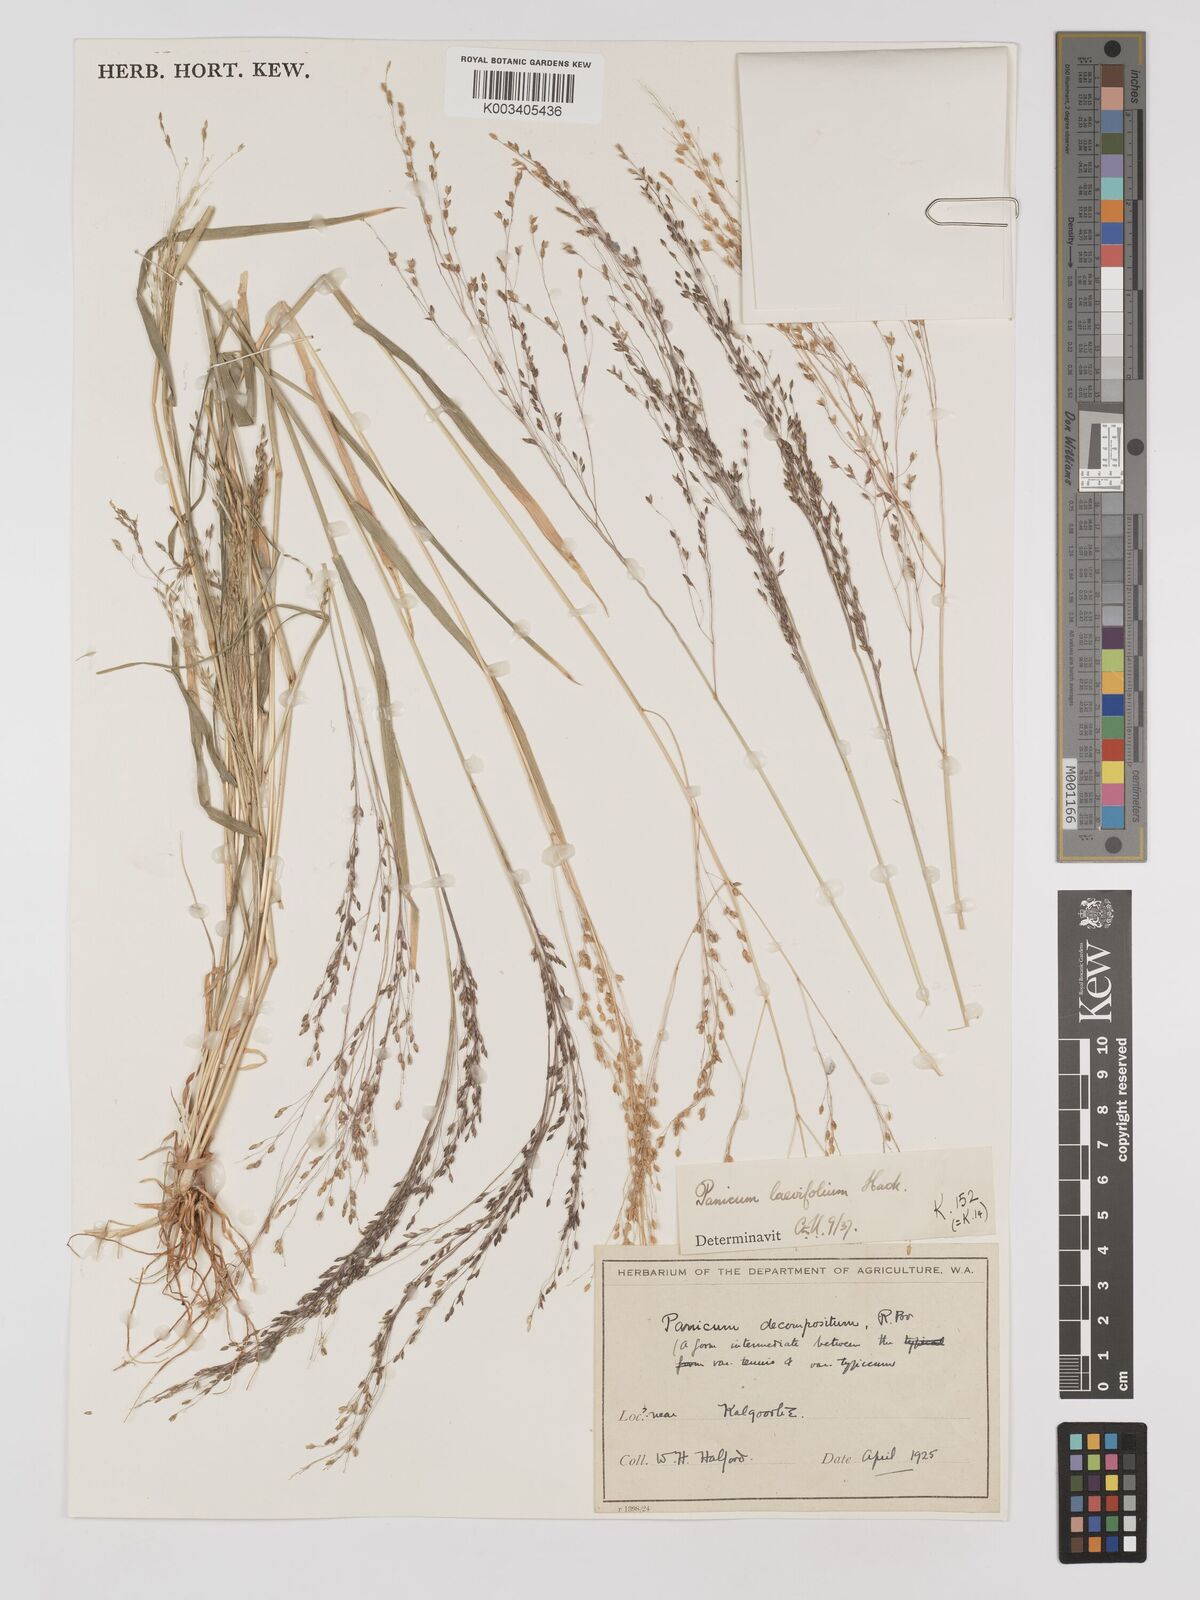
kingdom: Plantae
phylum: Tracheophyta
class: Liliopsida
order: Poales
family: Poaceae
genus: Panicum
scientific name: Panicum schinzii
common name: Sweet grass
